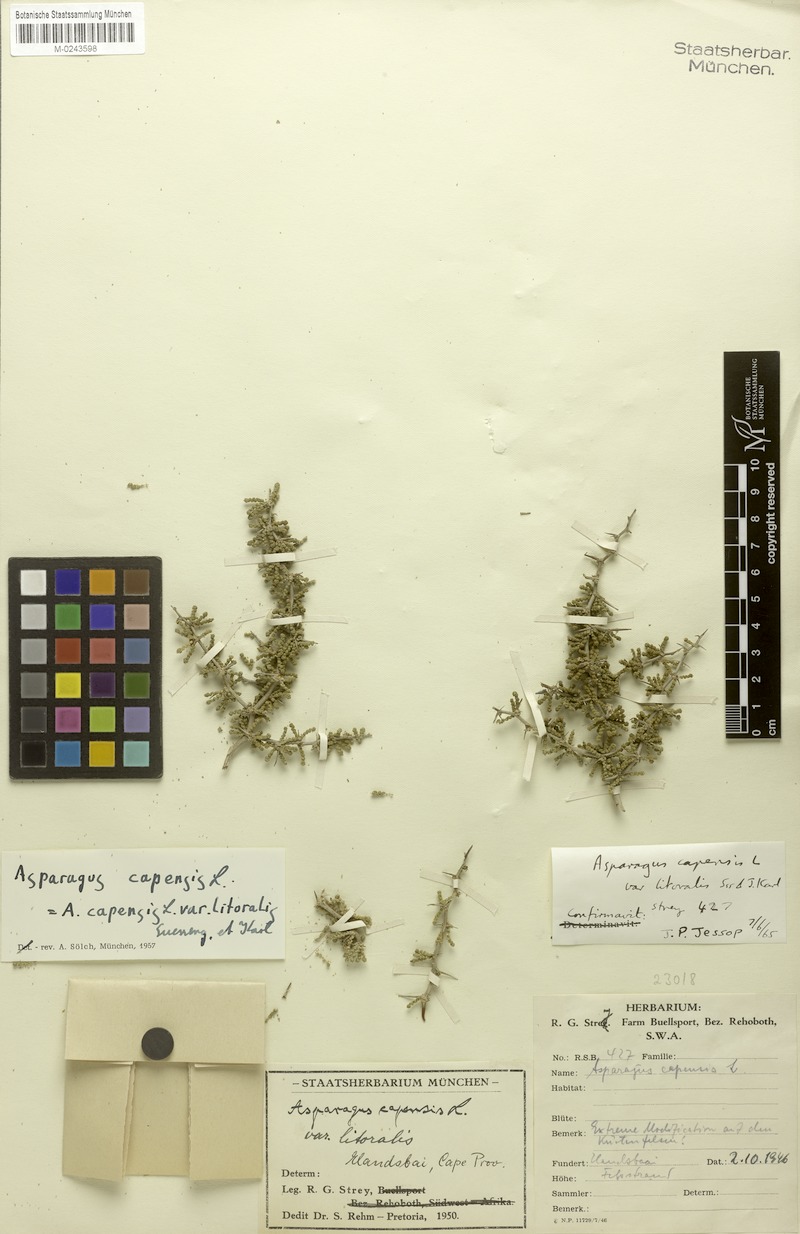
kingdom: Plantae
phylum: Tracheophyta
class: Liliopsida
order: Asparagales
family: Asparagaceae
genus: Asparagus
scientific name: Asparagus capensis
